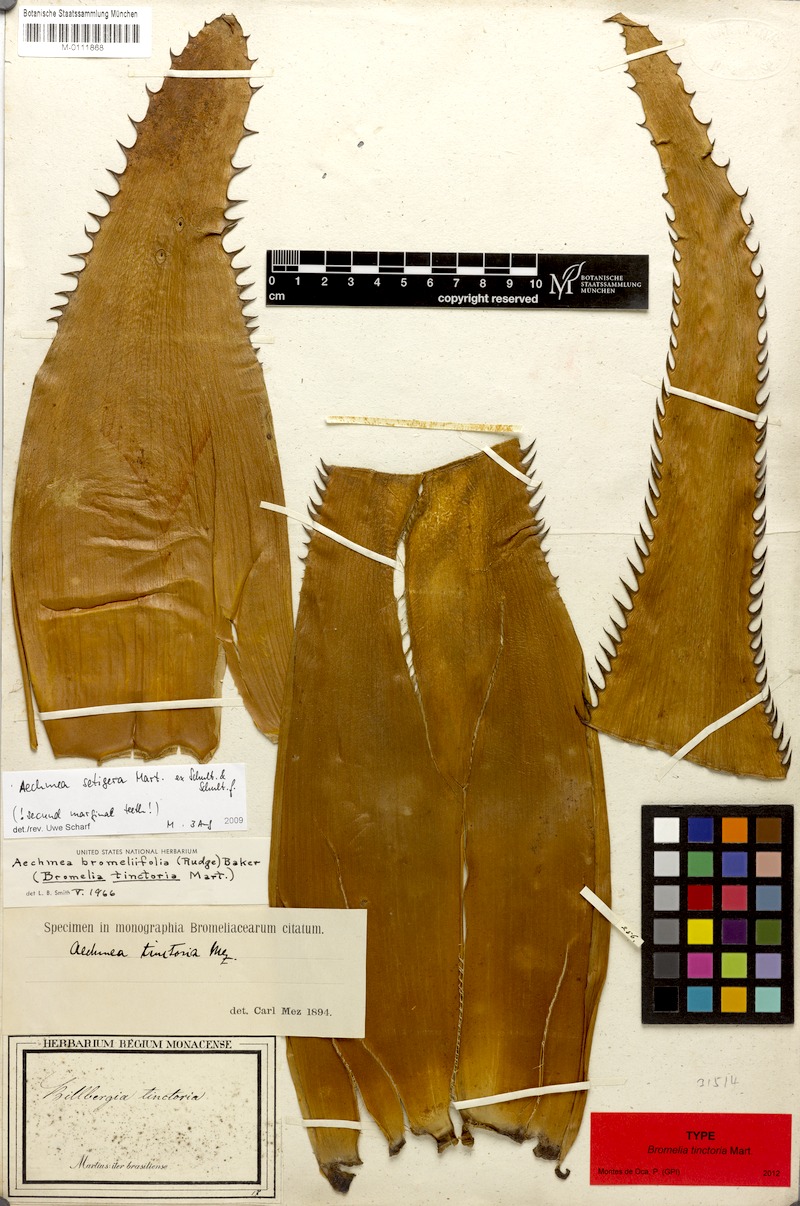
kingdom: Plantae
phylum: Tracheophyta
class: Liliopsida
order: Poales
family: Bromeliaceae
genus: Aechmea
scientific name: Aechmea bromeliifolia
